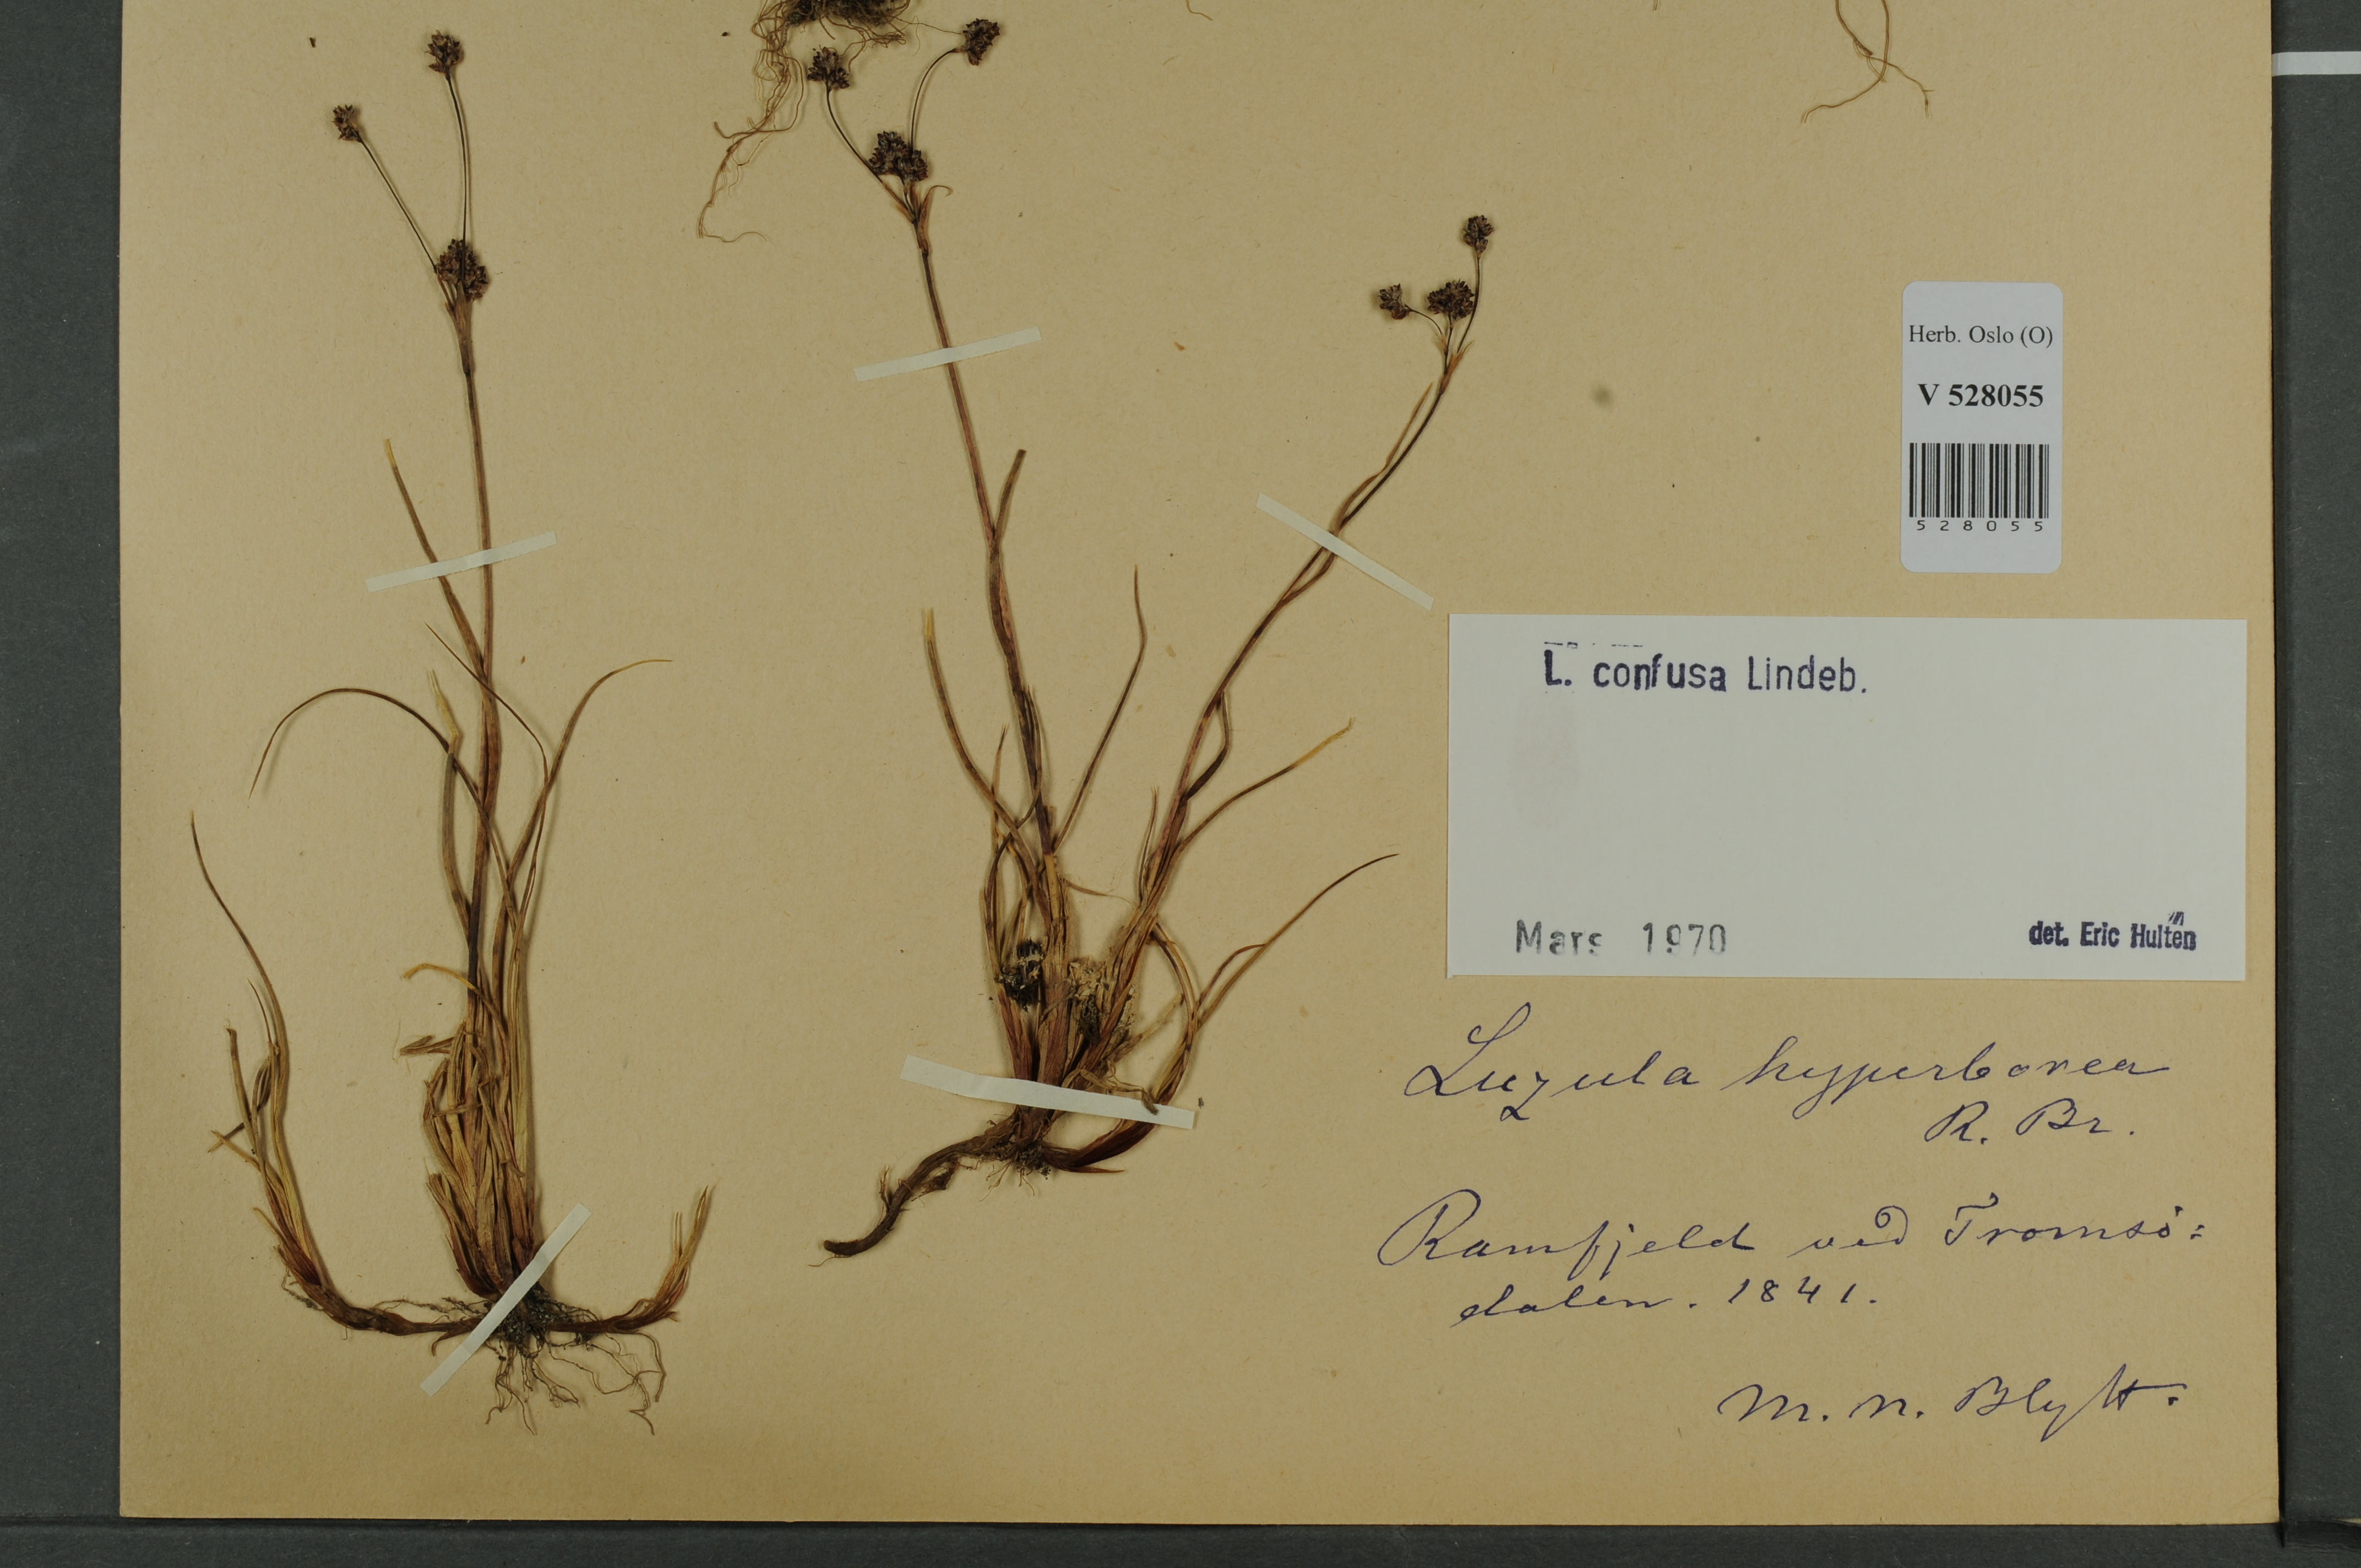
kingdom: Plantae
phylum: Tracheophyta
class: Liliopsida
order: Poales
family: Juncaceae
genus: Luzula
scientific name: Luzula confusa
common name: Northern wood rush
